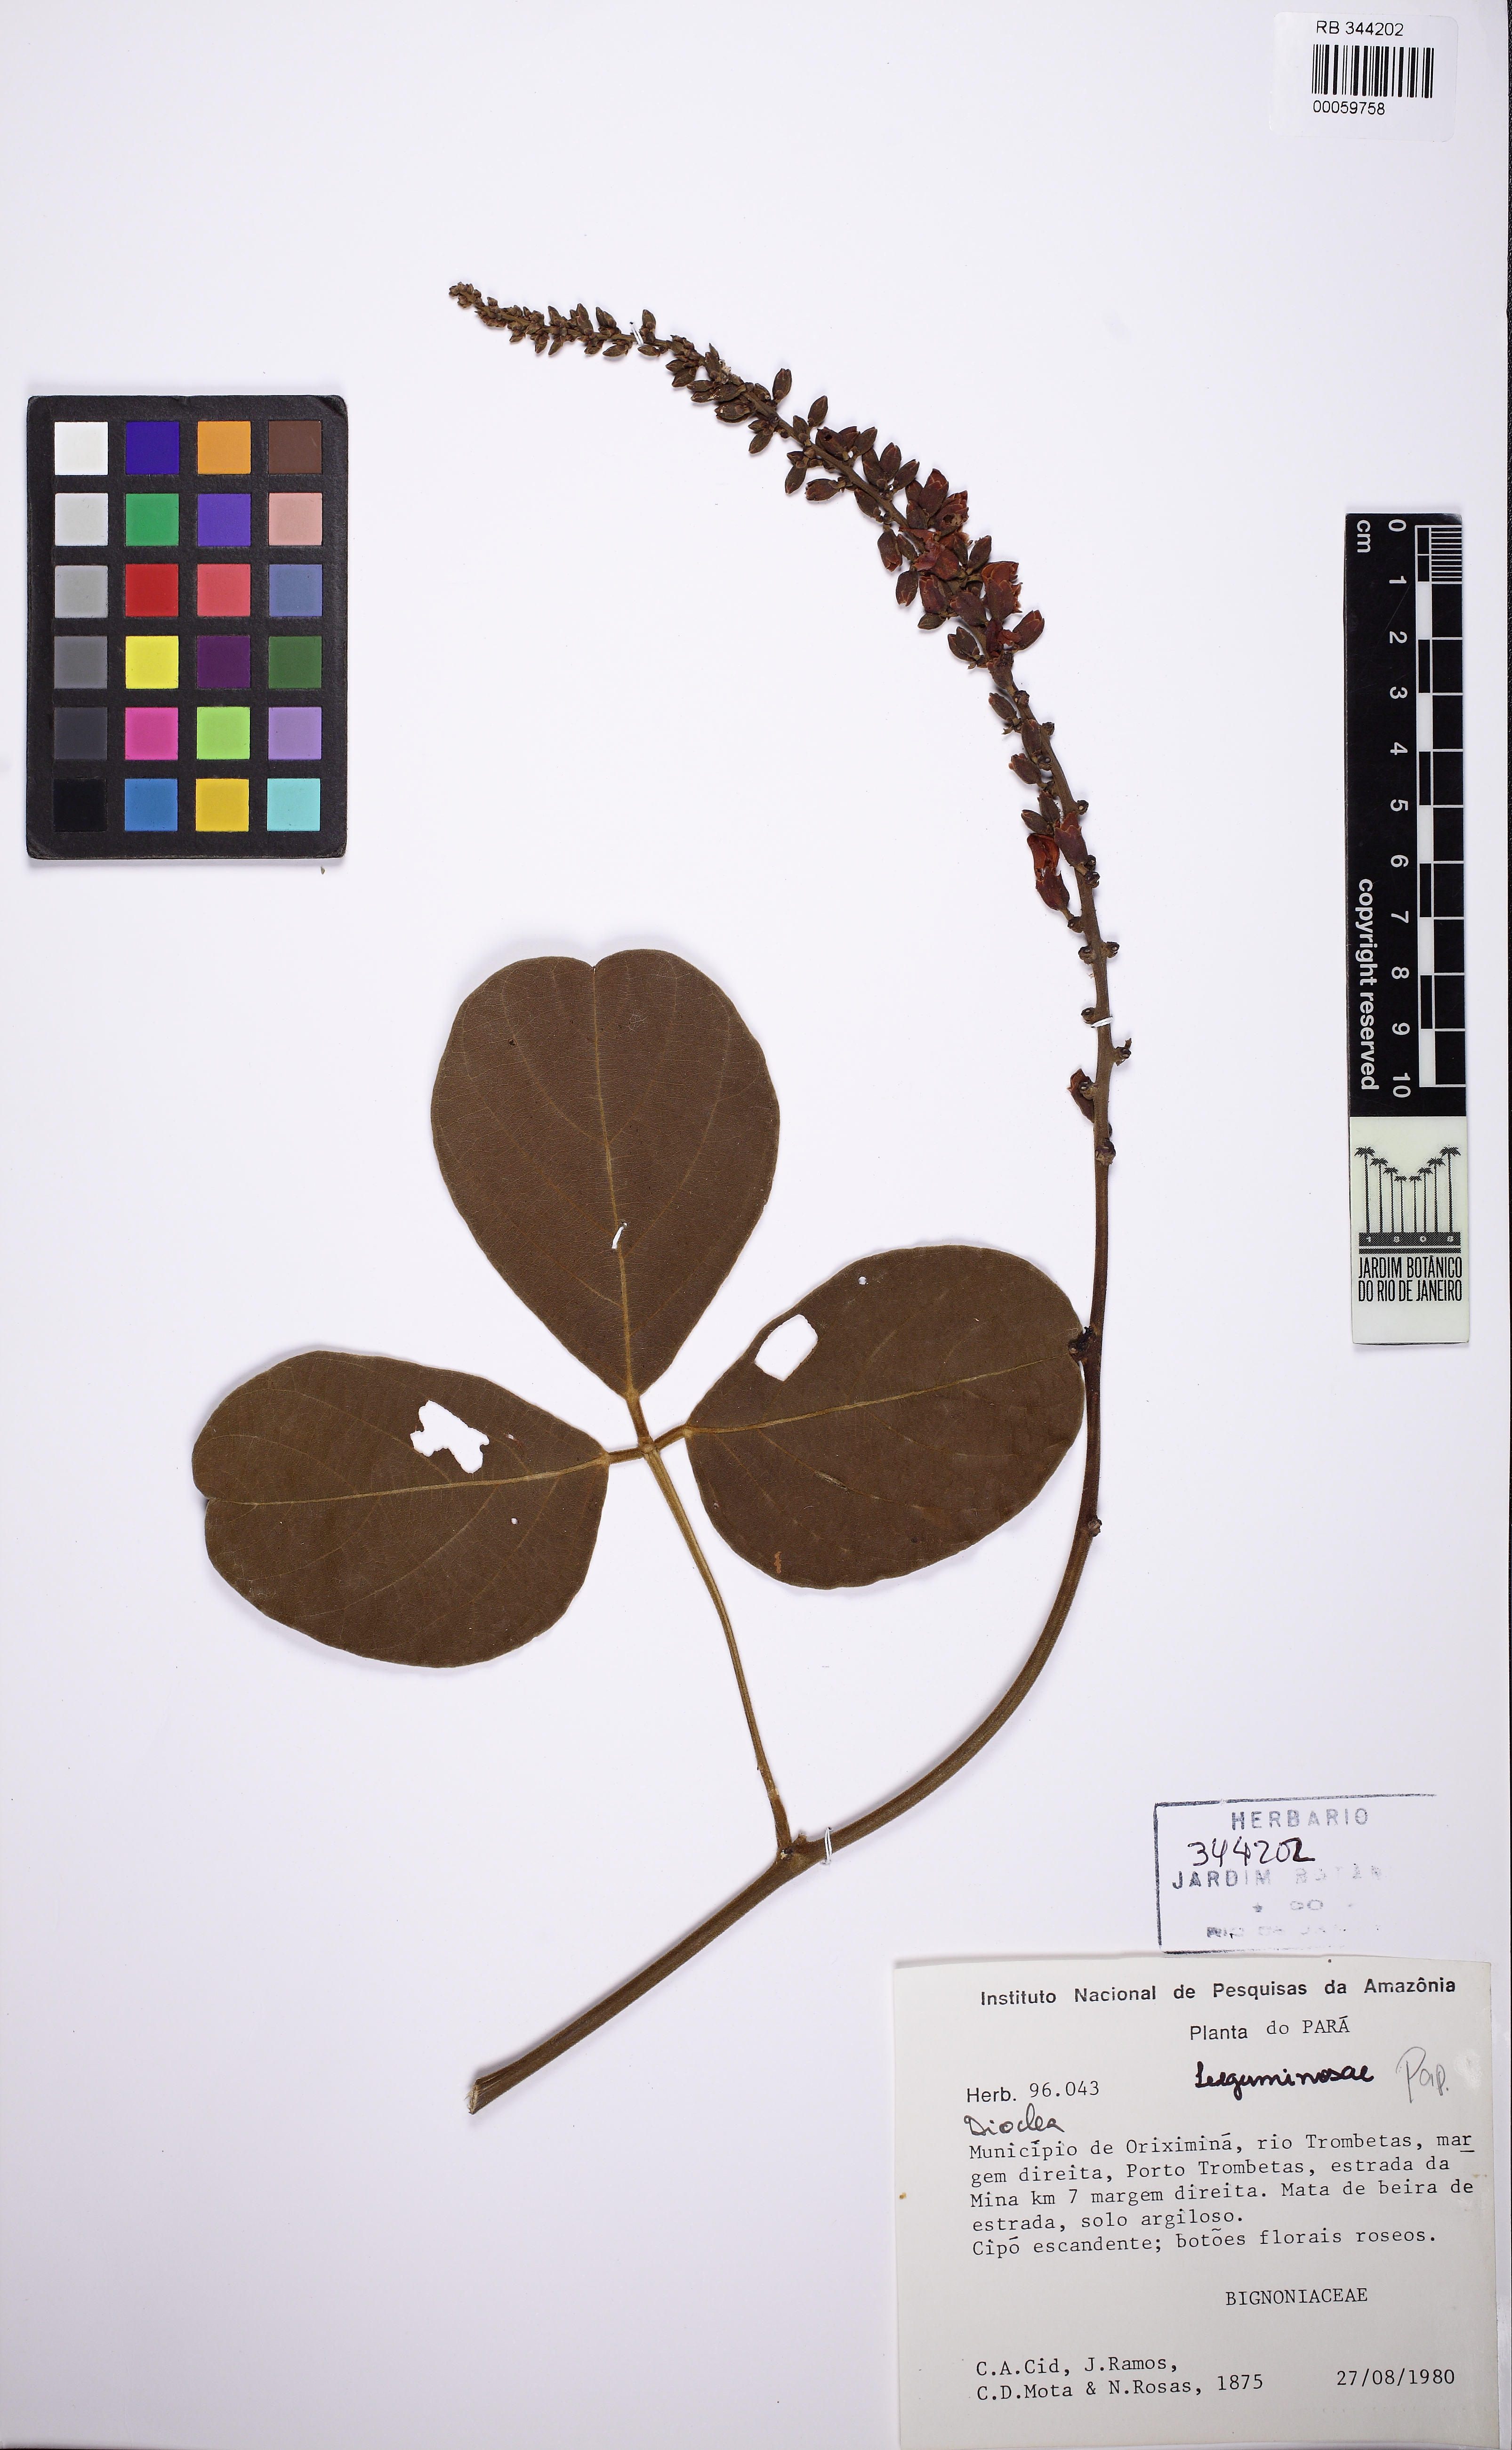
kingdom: Plantae
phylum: Tracheophyta
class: Magnoliopsida
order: Fabales
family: Fabaceae
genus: Cleobulia
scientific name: Cleobulia leiantha
